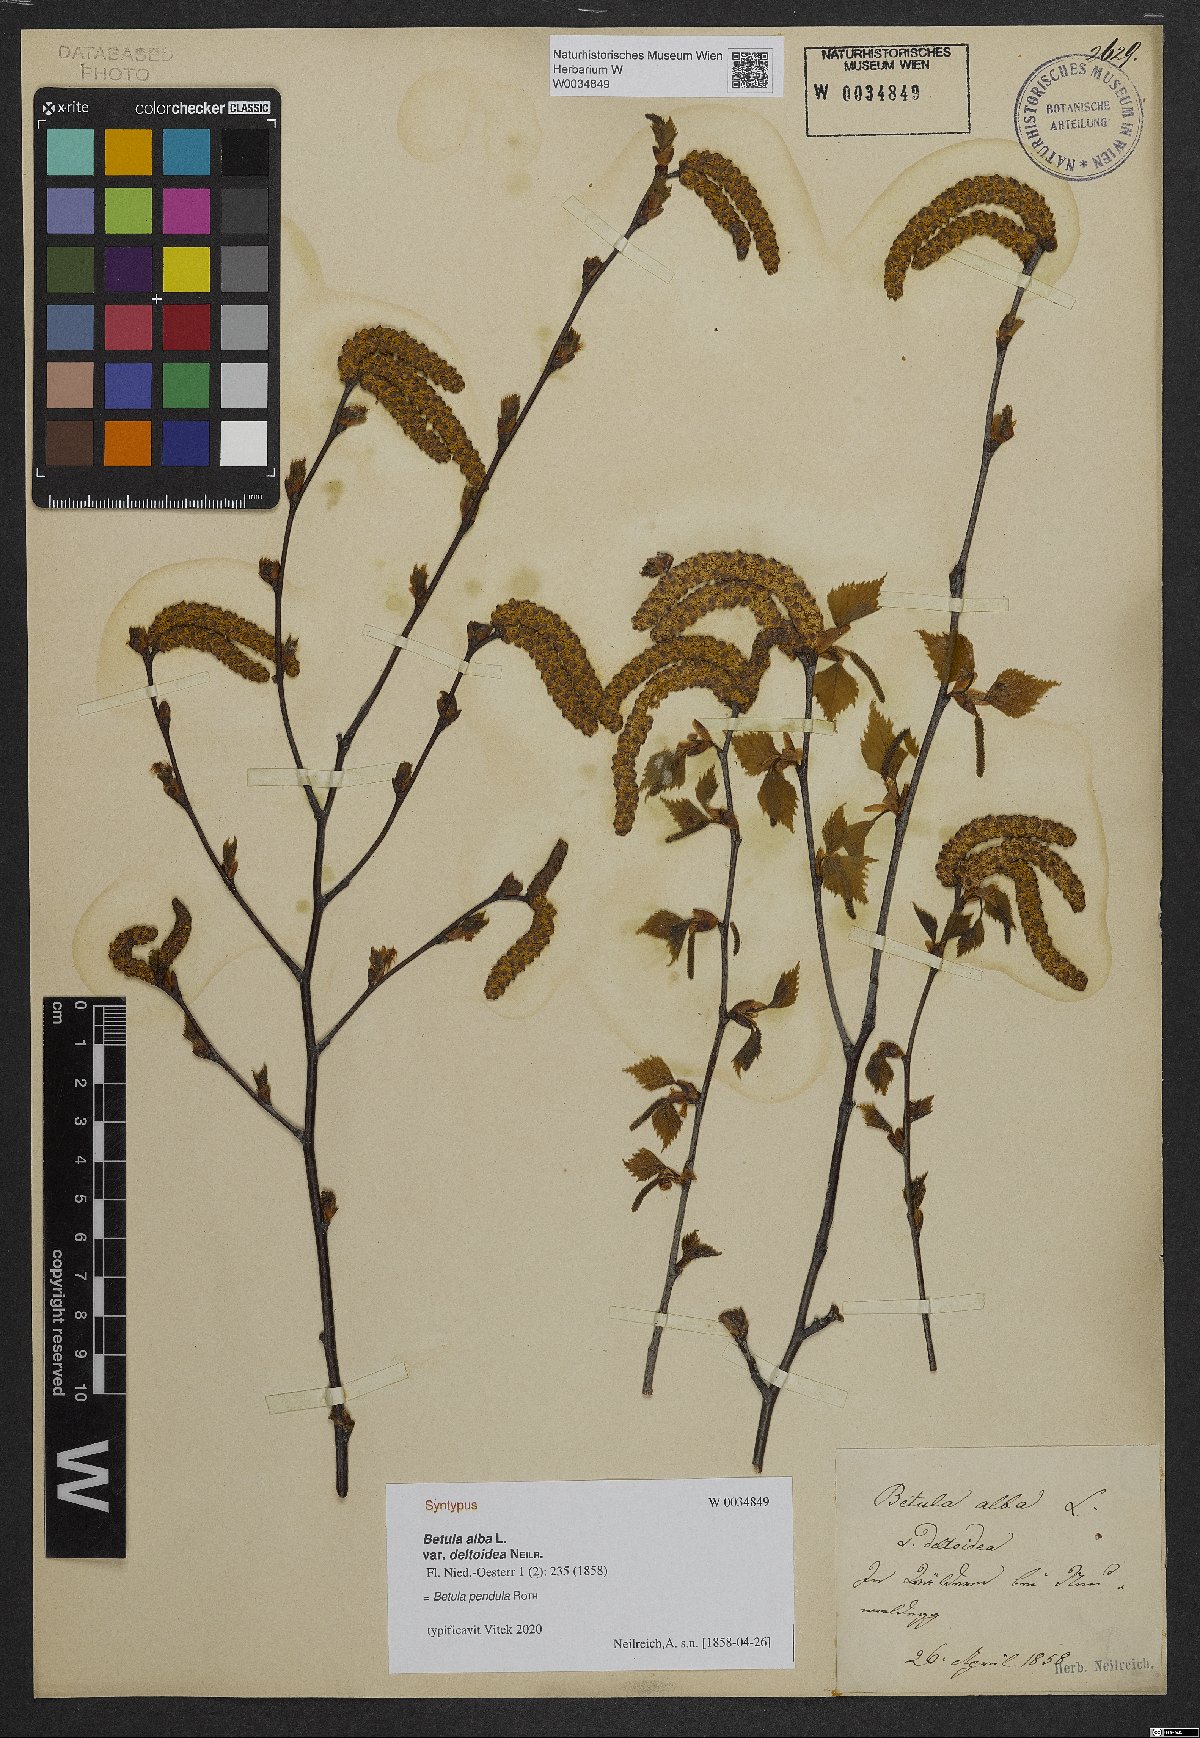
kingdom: Plantae
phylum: Tracheophyta
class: Magnoliopsida
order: Fagales
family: Betulaceae
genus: Betula
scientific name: Betula pubescens
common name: Downy birch
